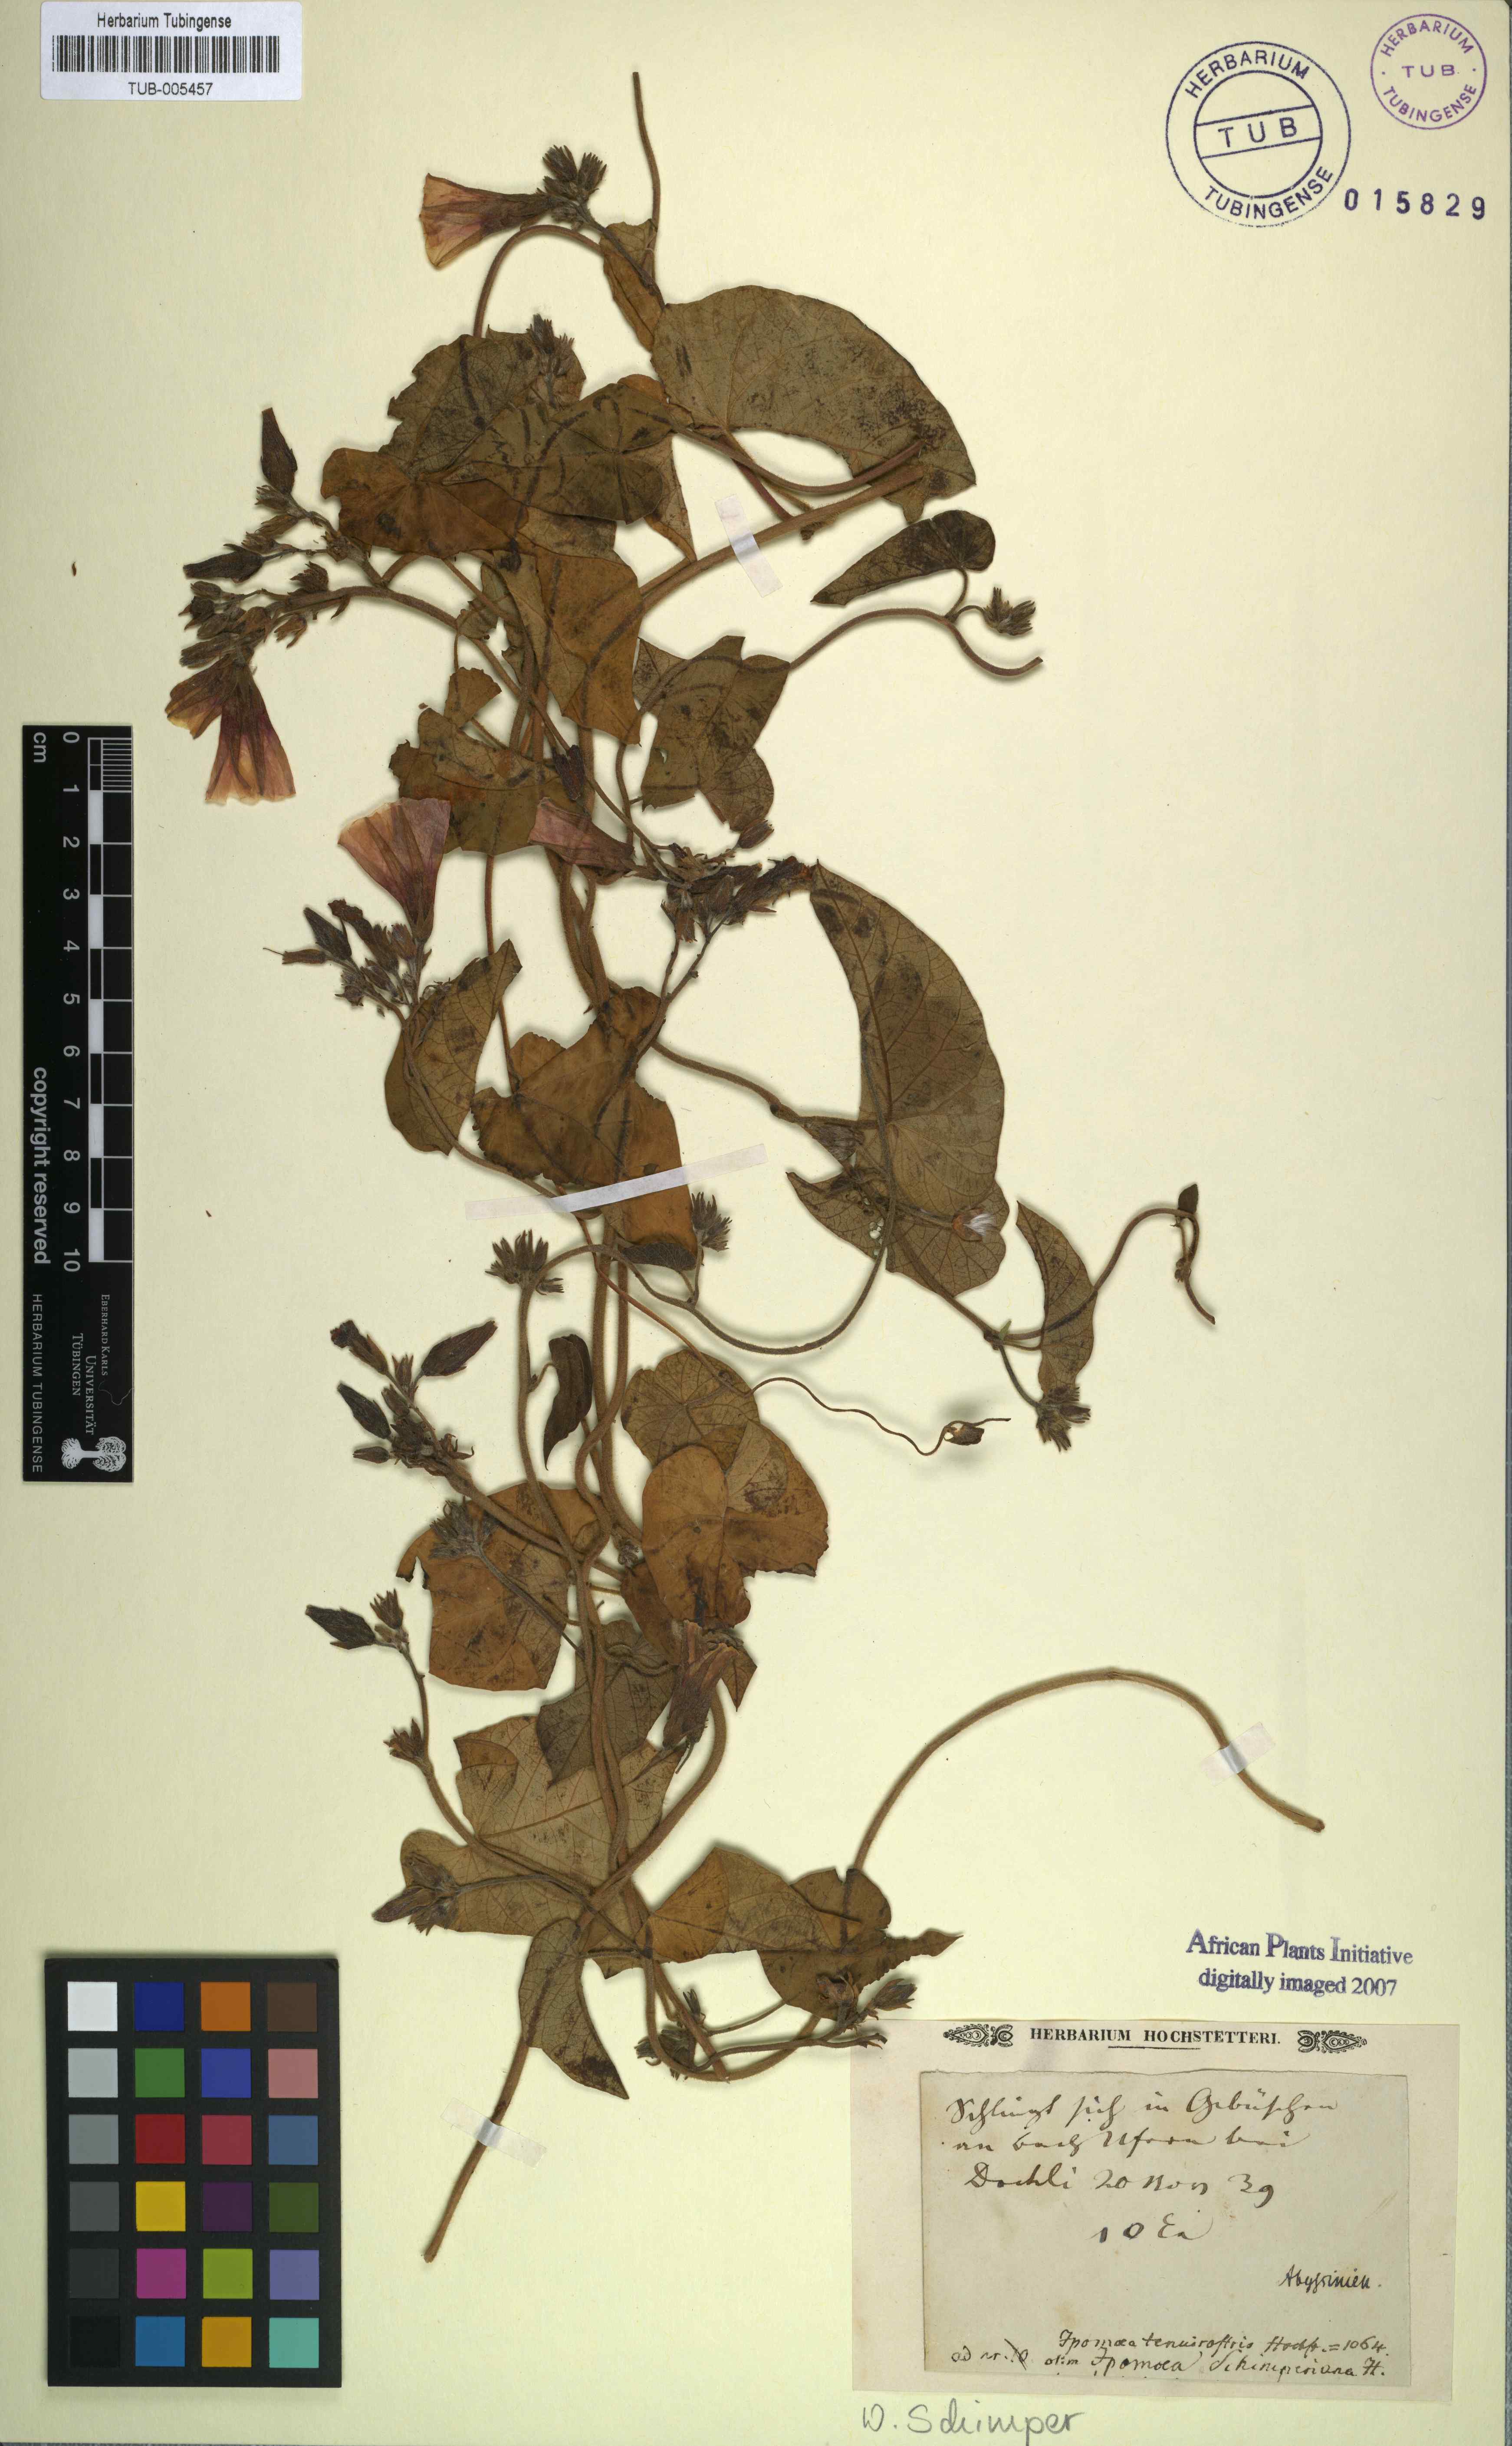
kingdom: Plantae
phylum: Tracheophyta
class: Magnoliopsida
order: Solanales
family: Convolvulaceae
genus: Ipomoea
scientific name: Ipomoea tenuirostris
